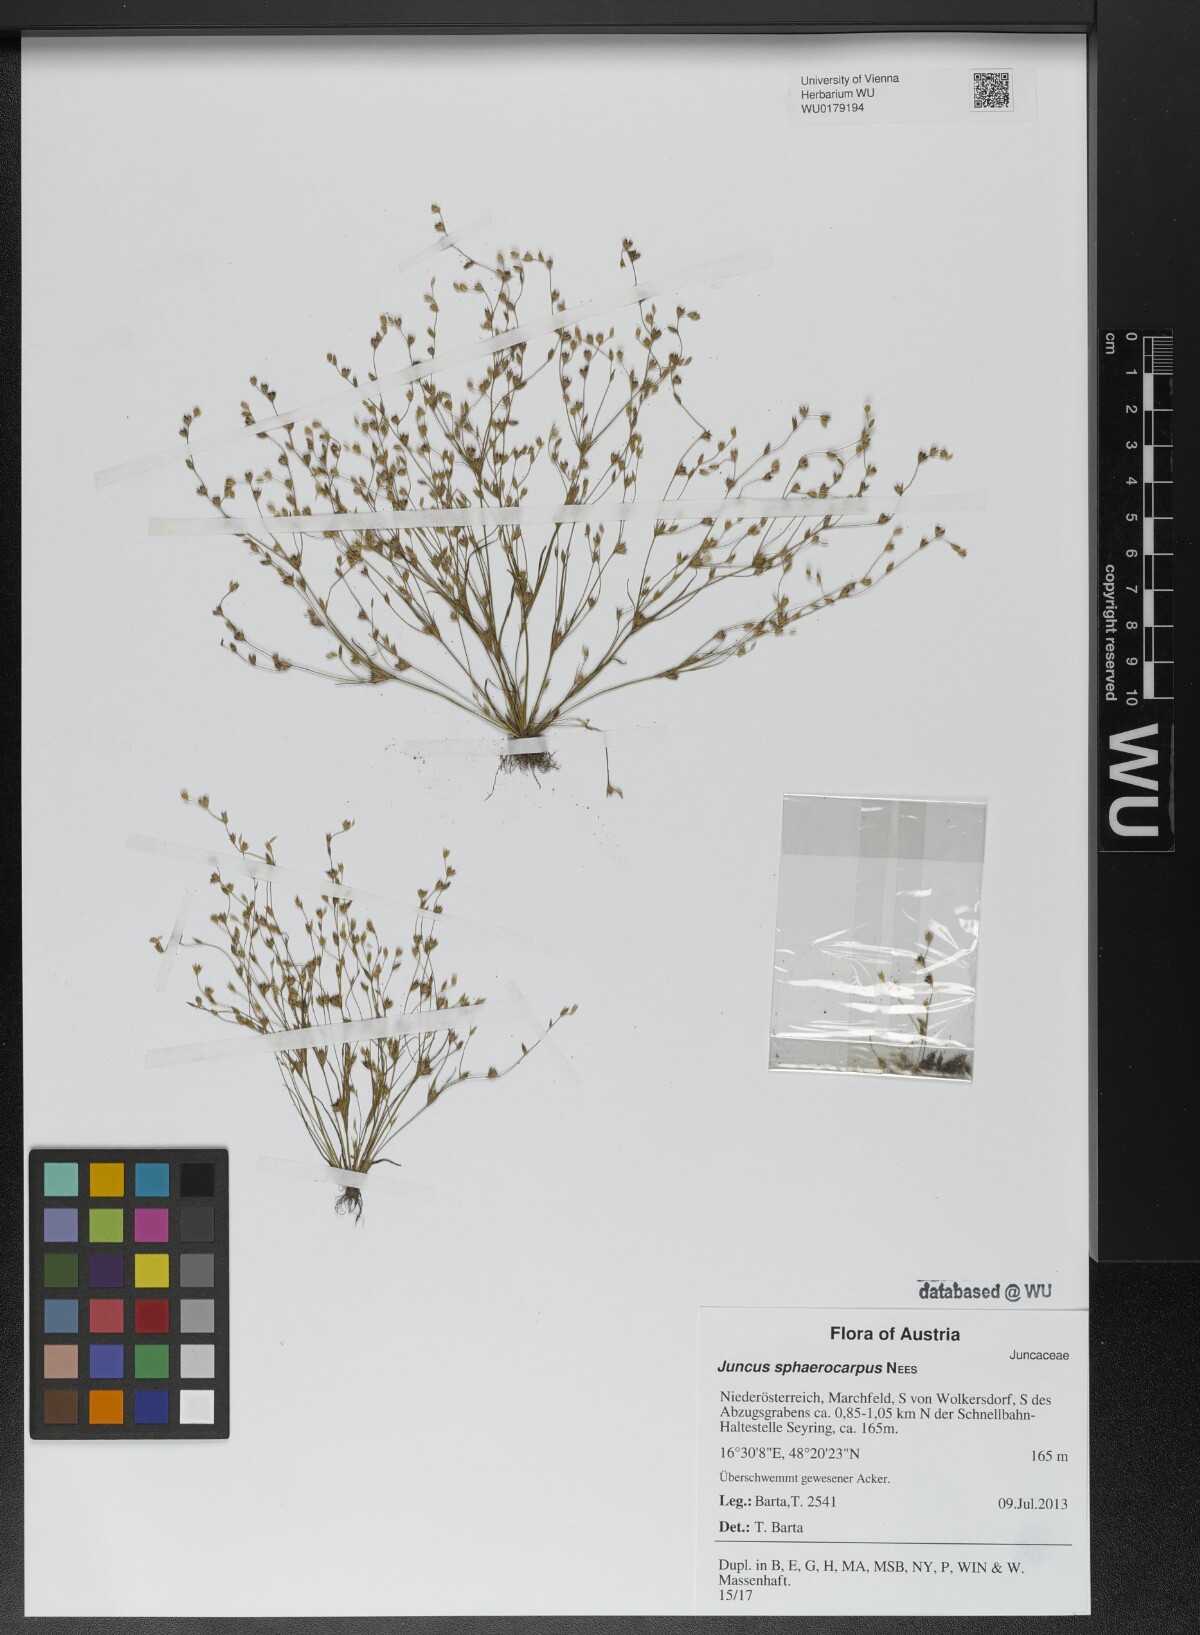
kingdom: Plantae
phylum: Tracheophyta
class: Liliopsida
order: Poales
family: Juncaceae
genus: Juncus
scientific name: Juncus sphaerocarpus
